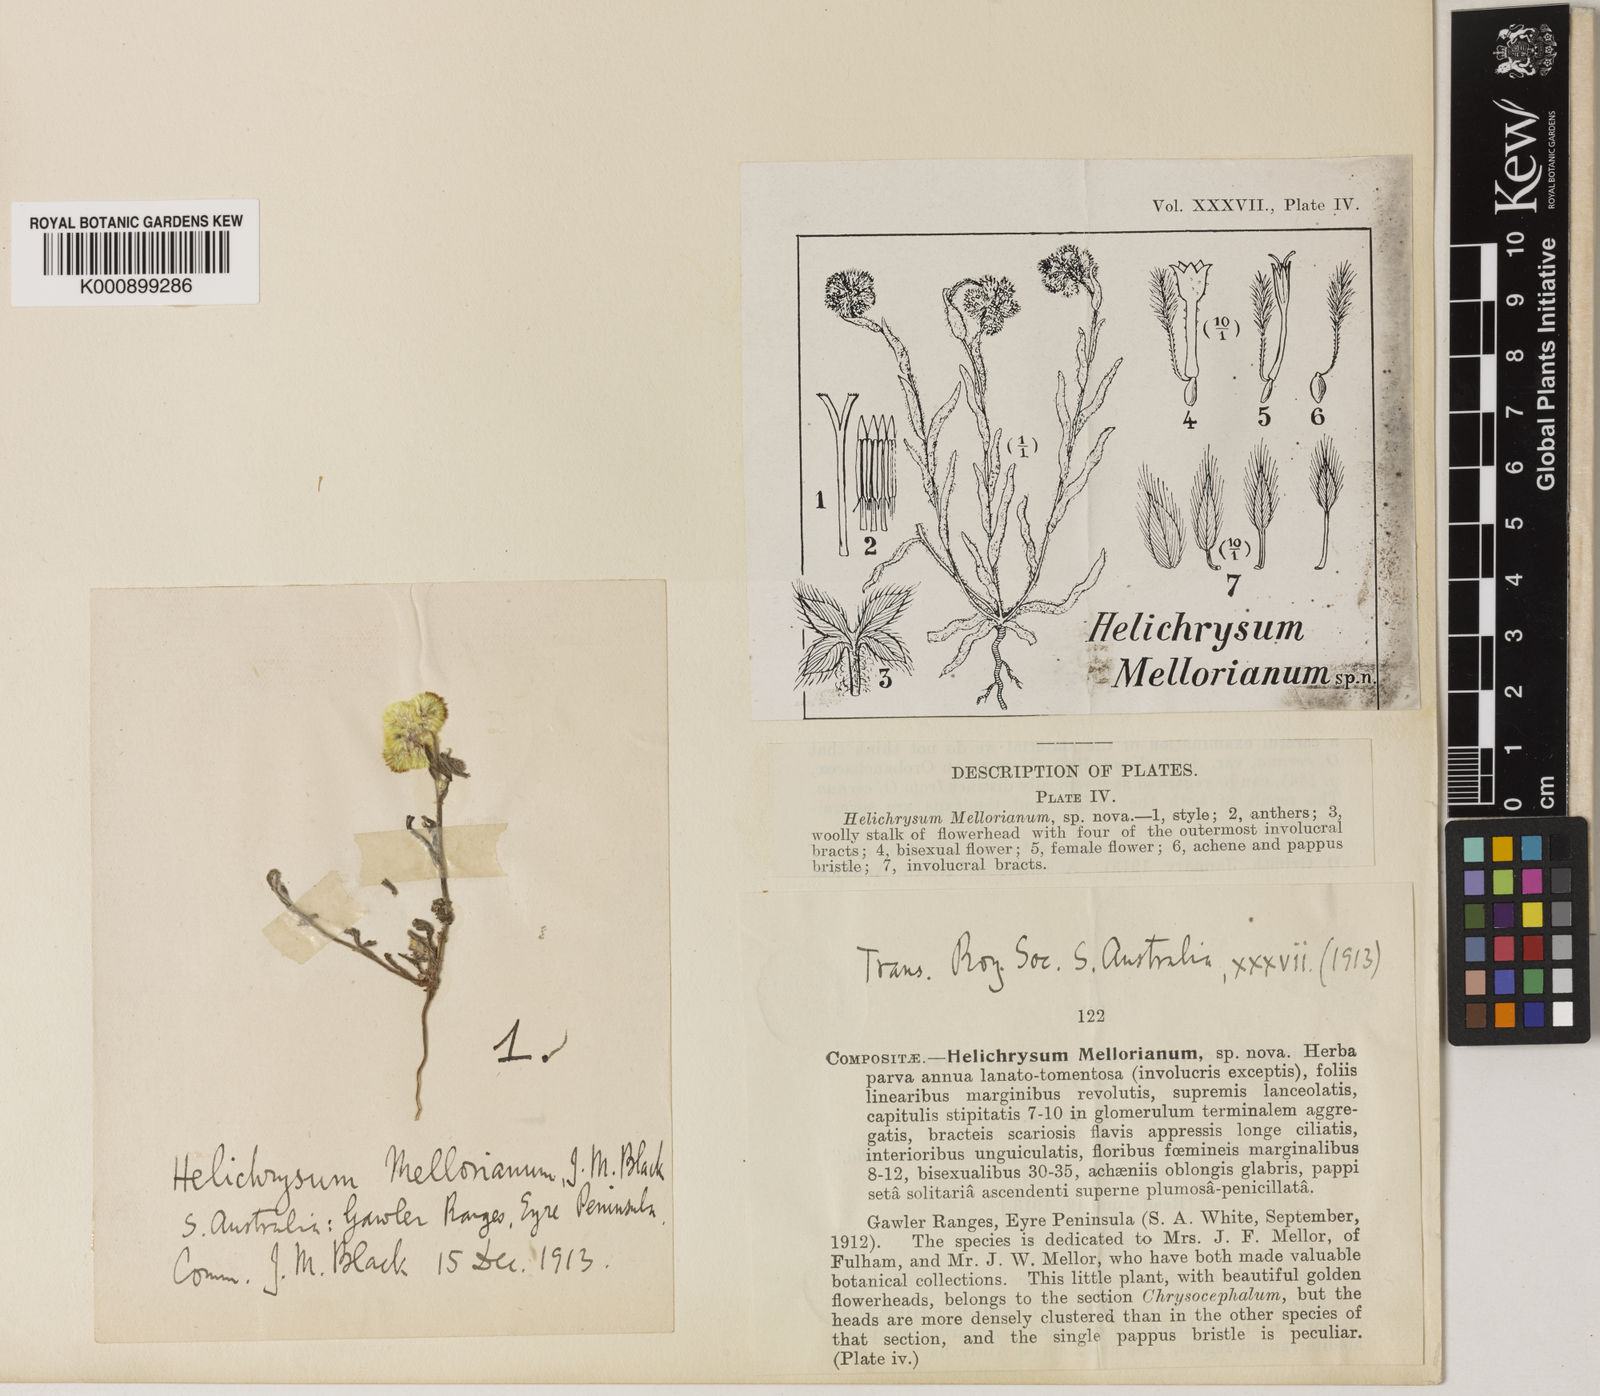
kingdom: Plantae
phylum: Tracheophyta
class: Magnoliopsida
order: Asterales
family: Asteraceae
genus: Gratwickia
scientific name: Gratwickia monochaeta
